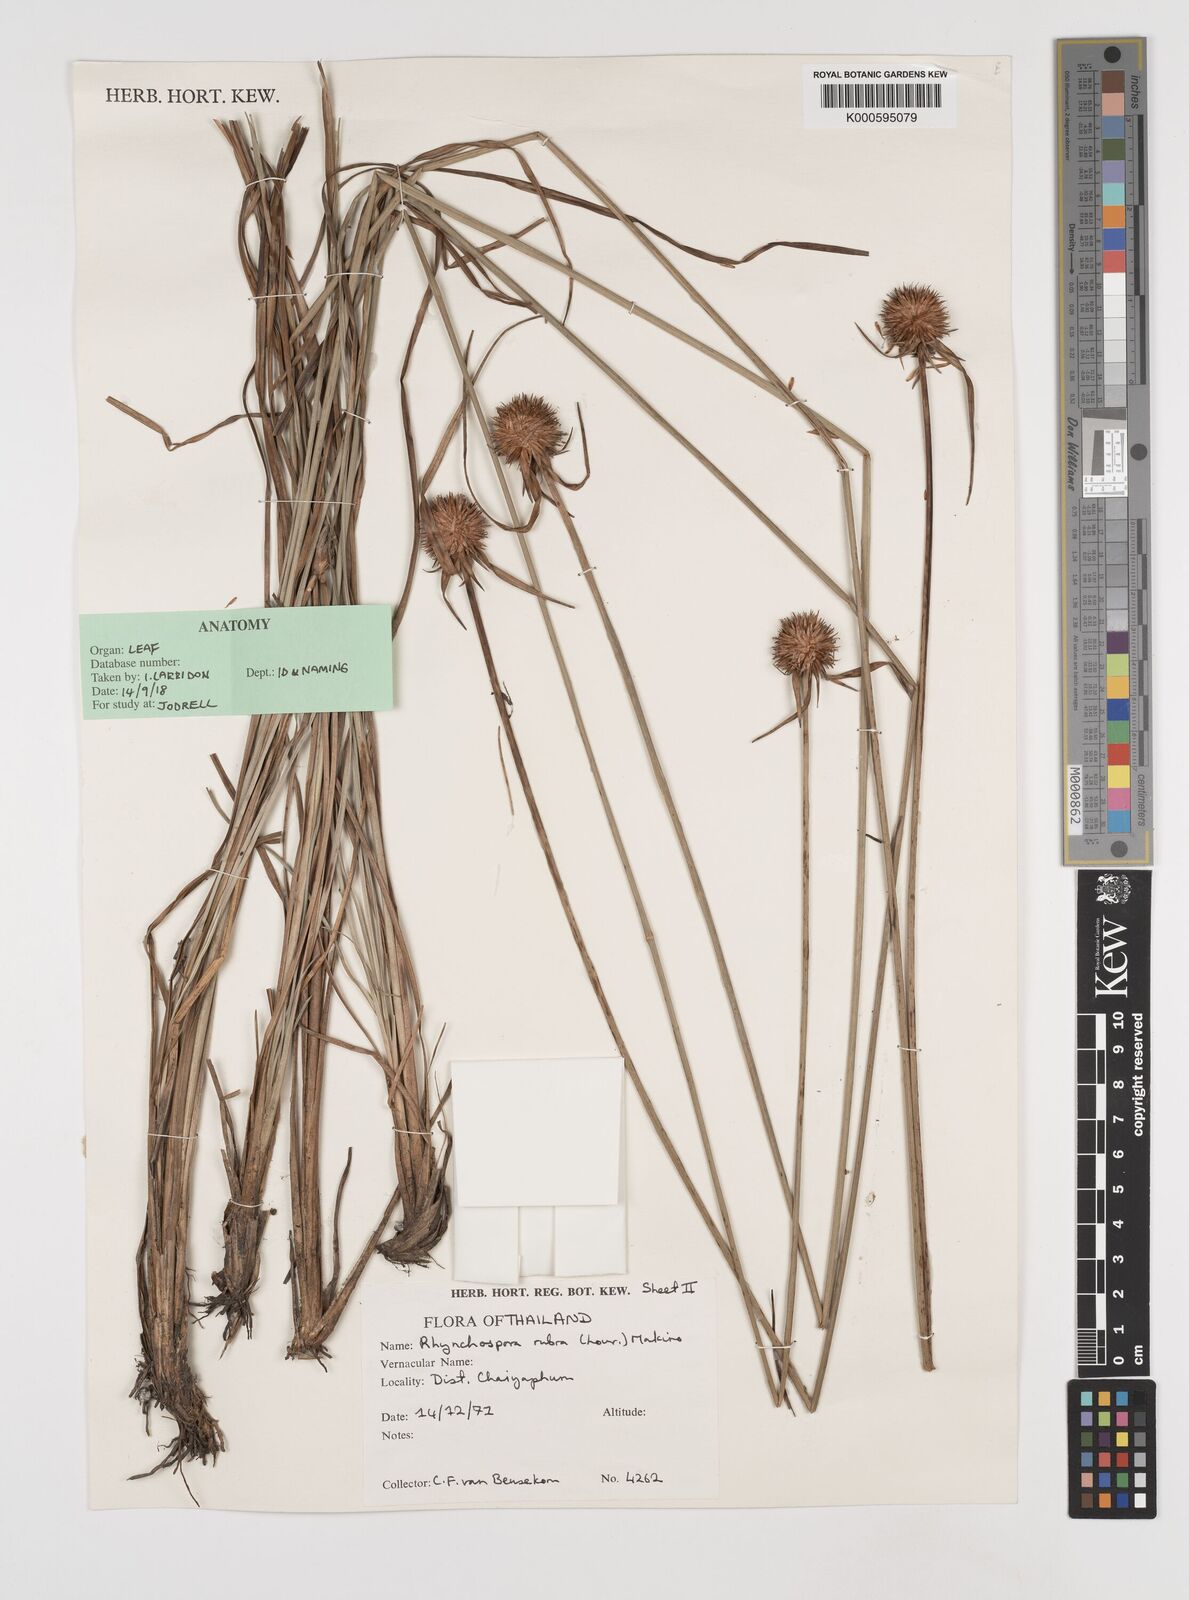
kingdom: Plantae
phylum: Tracheophyta
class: Liliopsida
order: Poales
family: Cyperaceae
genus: Rhynchospora
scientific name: Rhynchospora rubra
